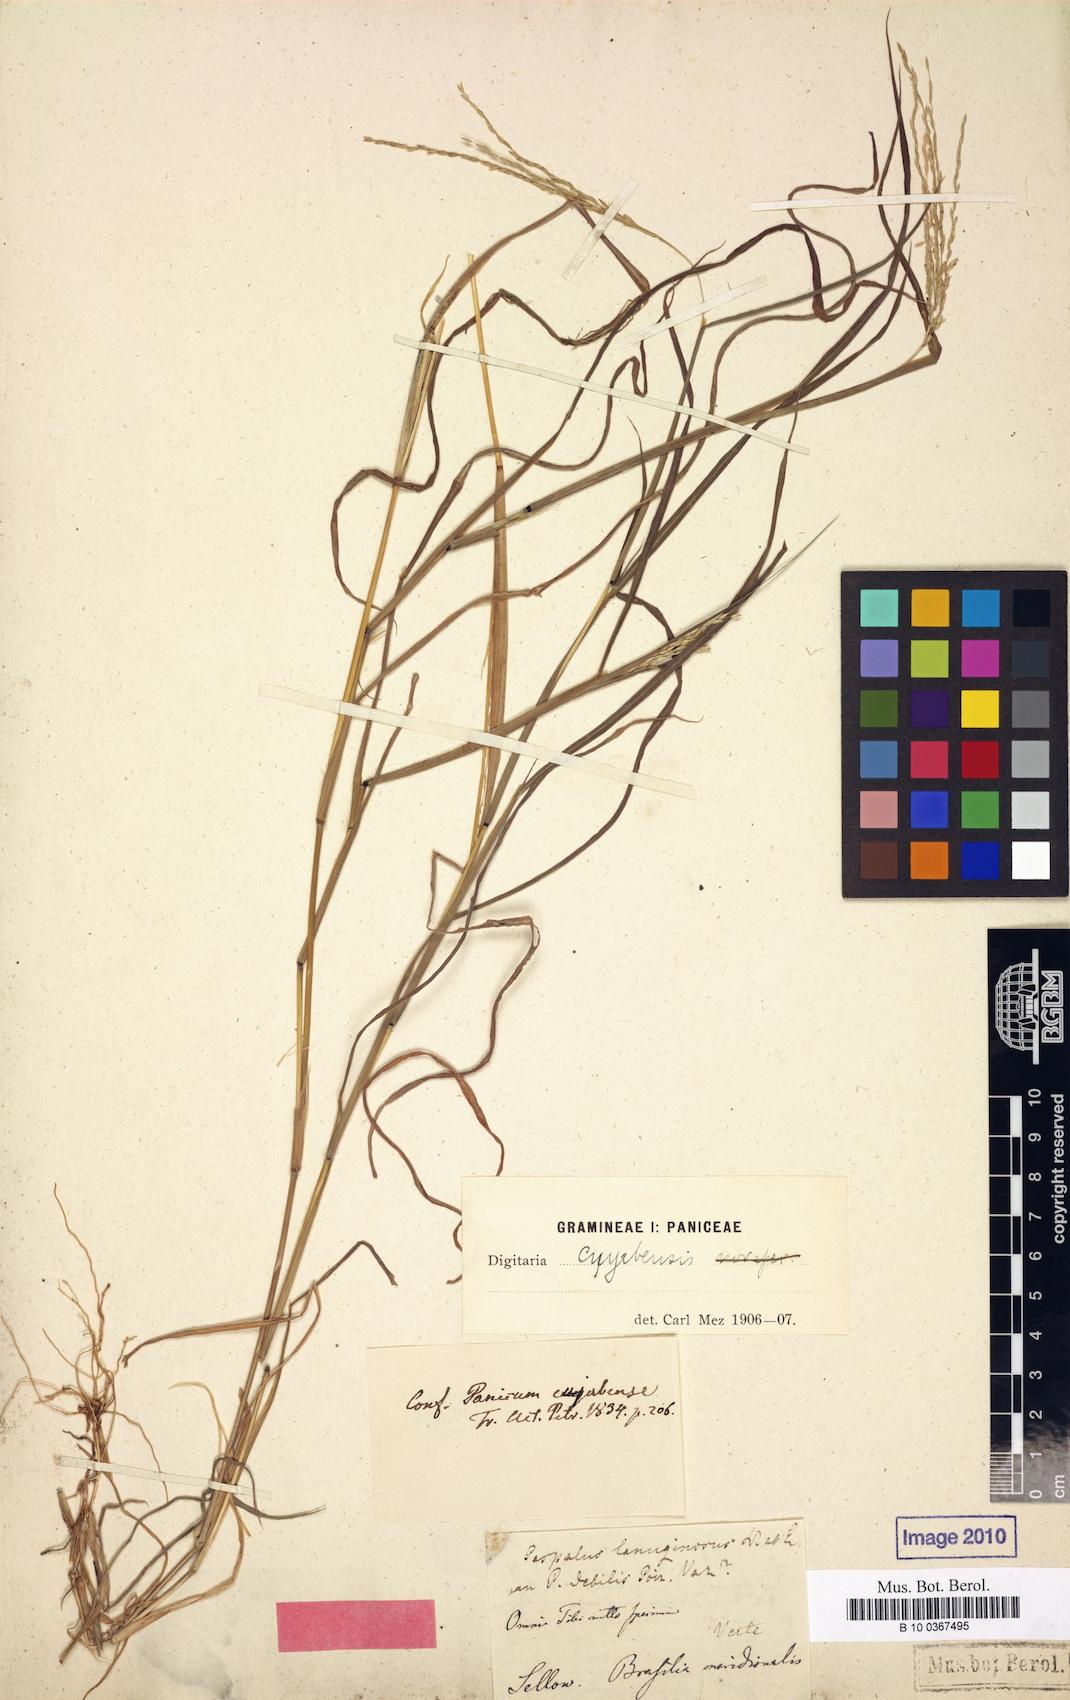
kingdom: Plantae
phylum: Tracheophyta
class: Liliopsida
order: Poales
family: Poaceae
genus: Digitaria
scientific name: Digitaria lanuginosa
